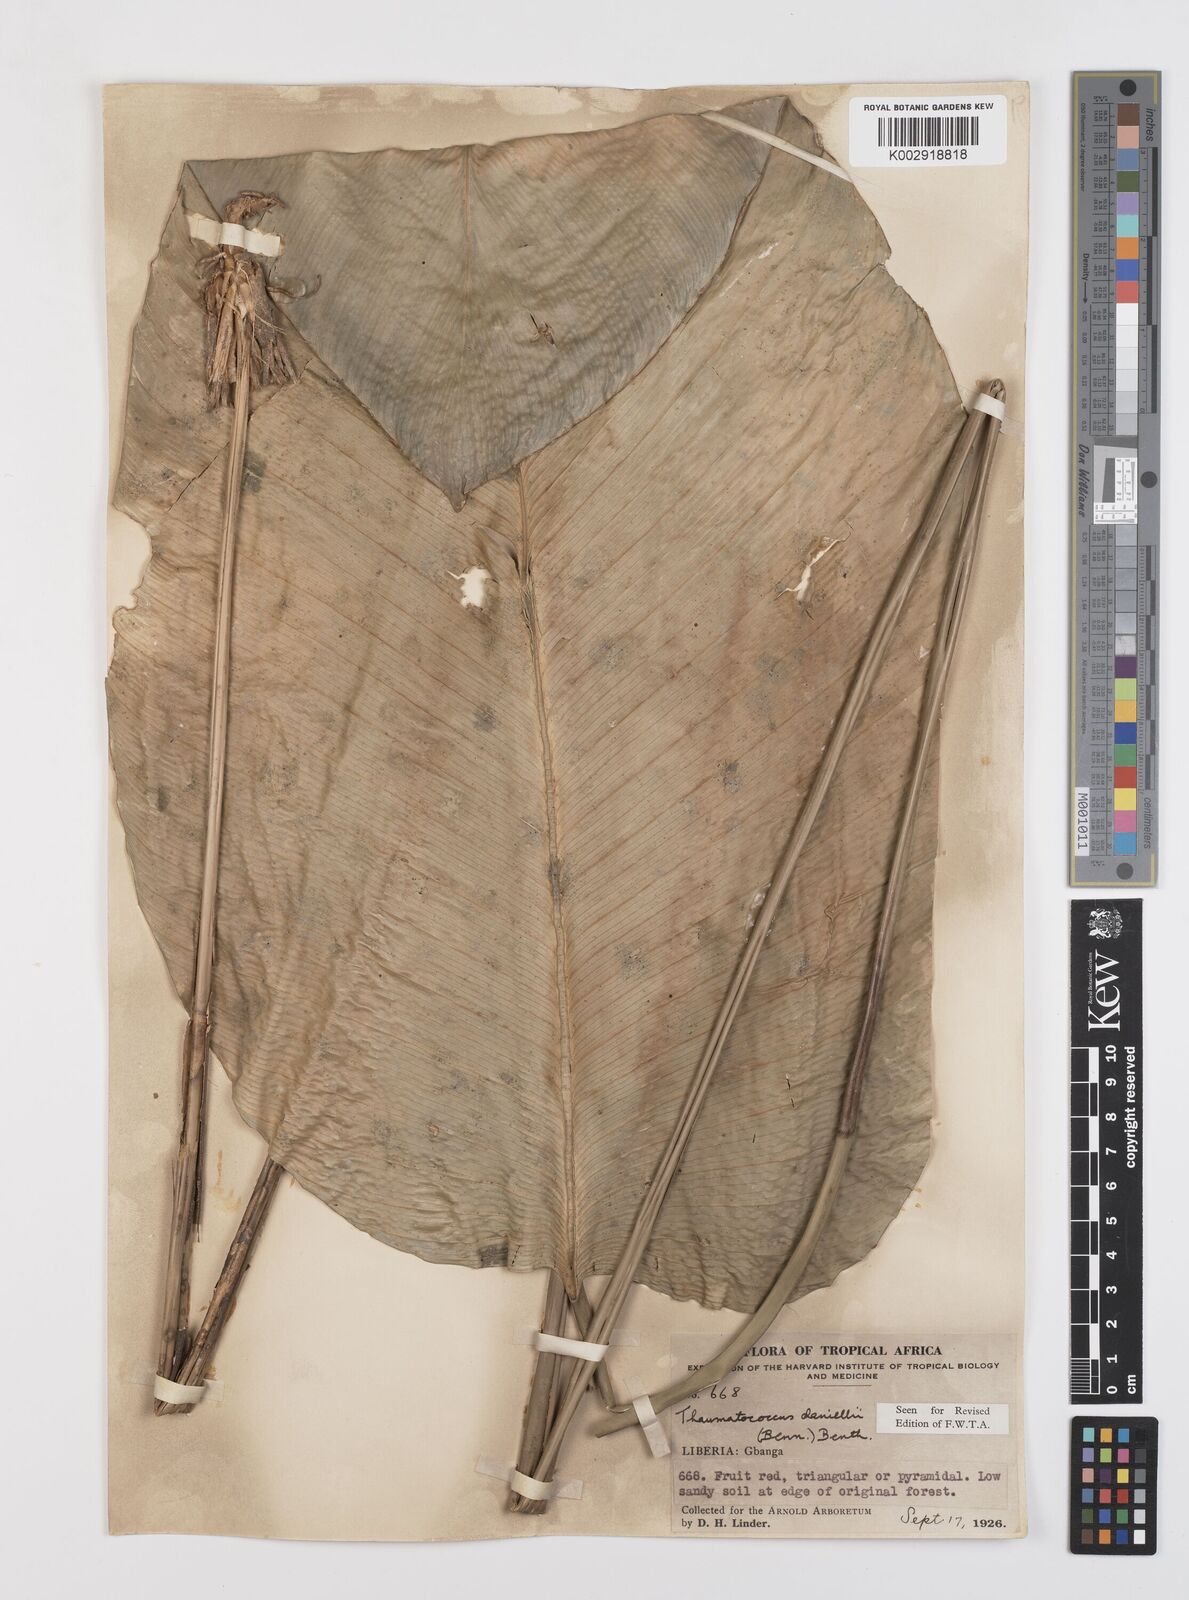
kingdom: Plantae
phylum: Tracheophyta
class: Liliopsida
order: Zingiberales
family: Marantaceae
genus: Thaumatococcus
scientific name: Thaumatococcus daniellii
